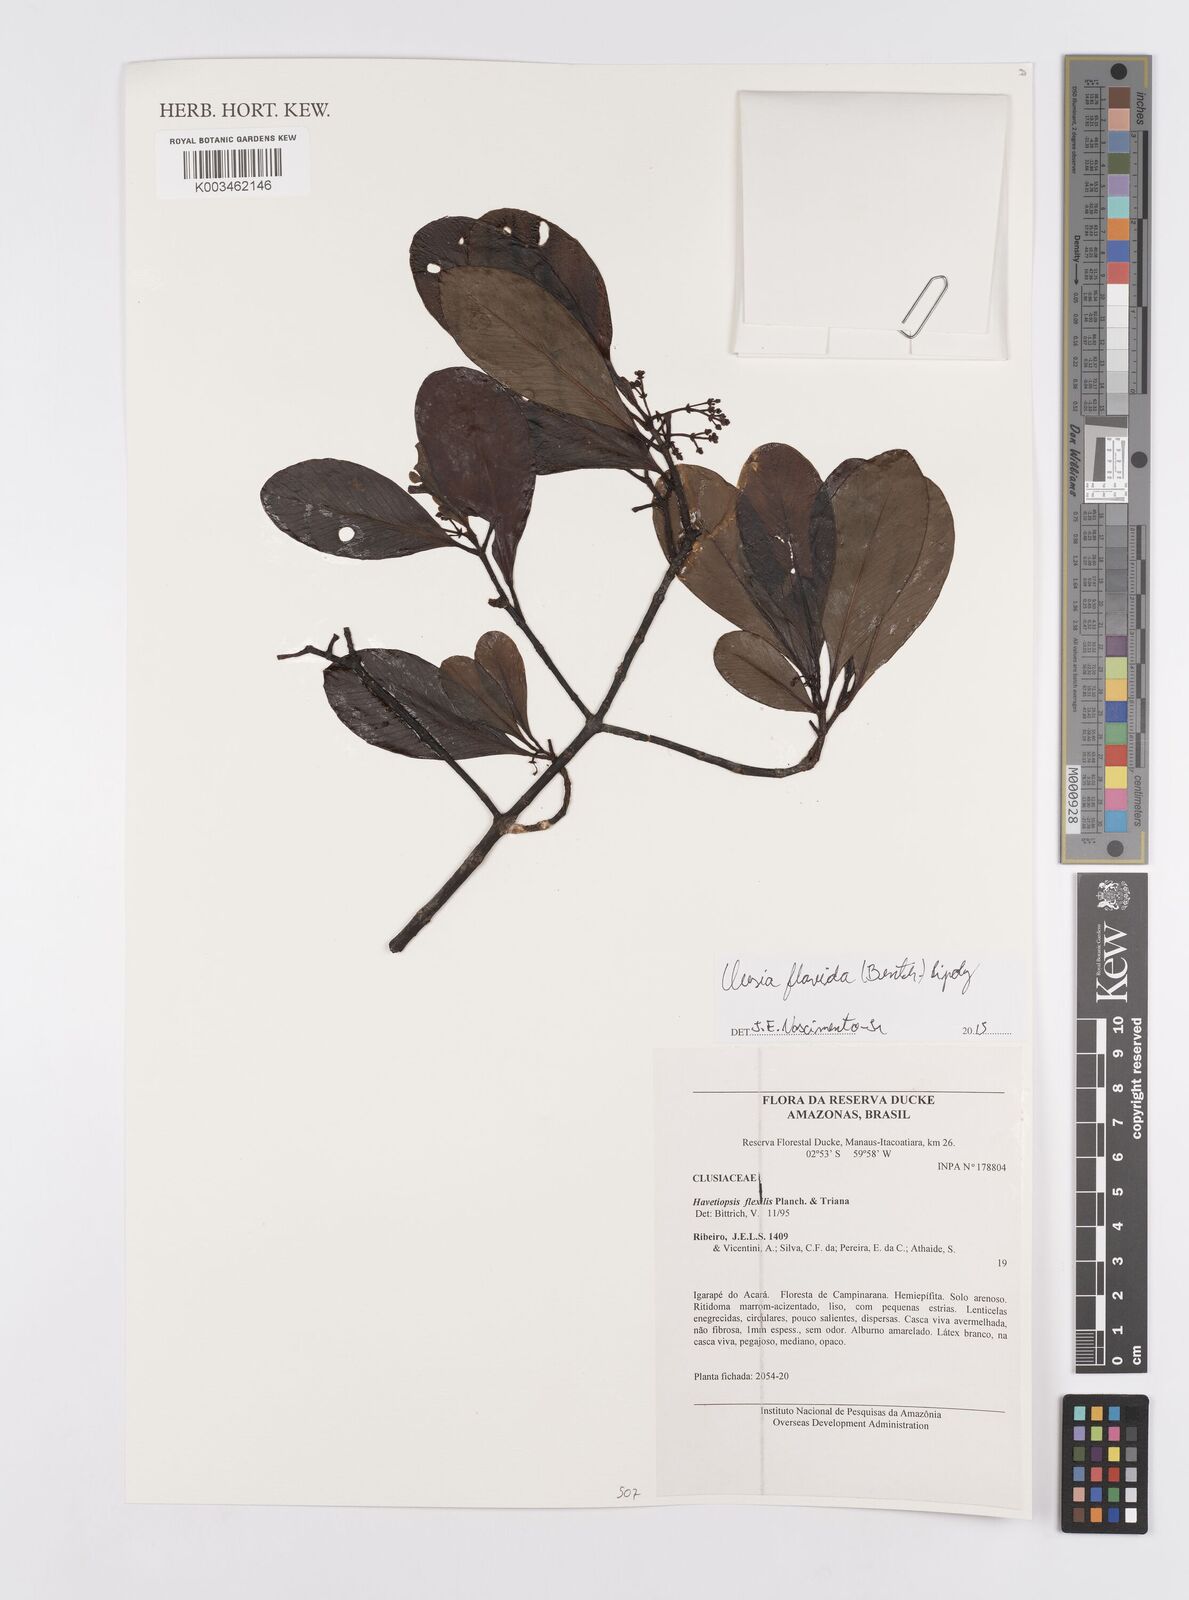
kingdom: Plantae
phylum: Tracheophyta
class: Magnoliopsida
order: Malpighiales
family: Clusiaceae
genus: Clusia
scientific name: Clusia flavida
